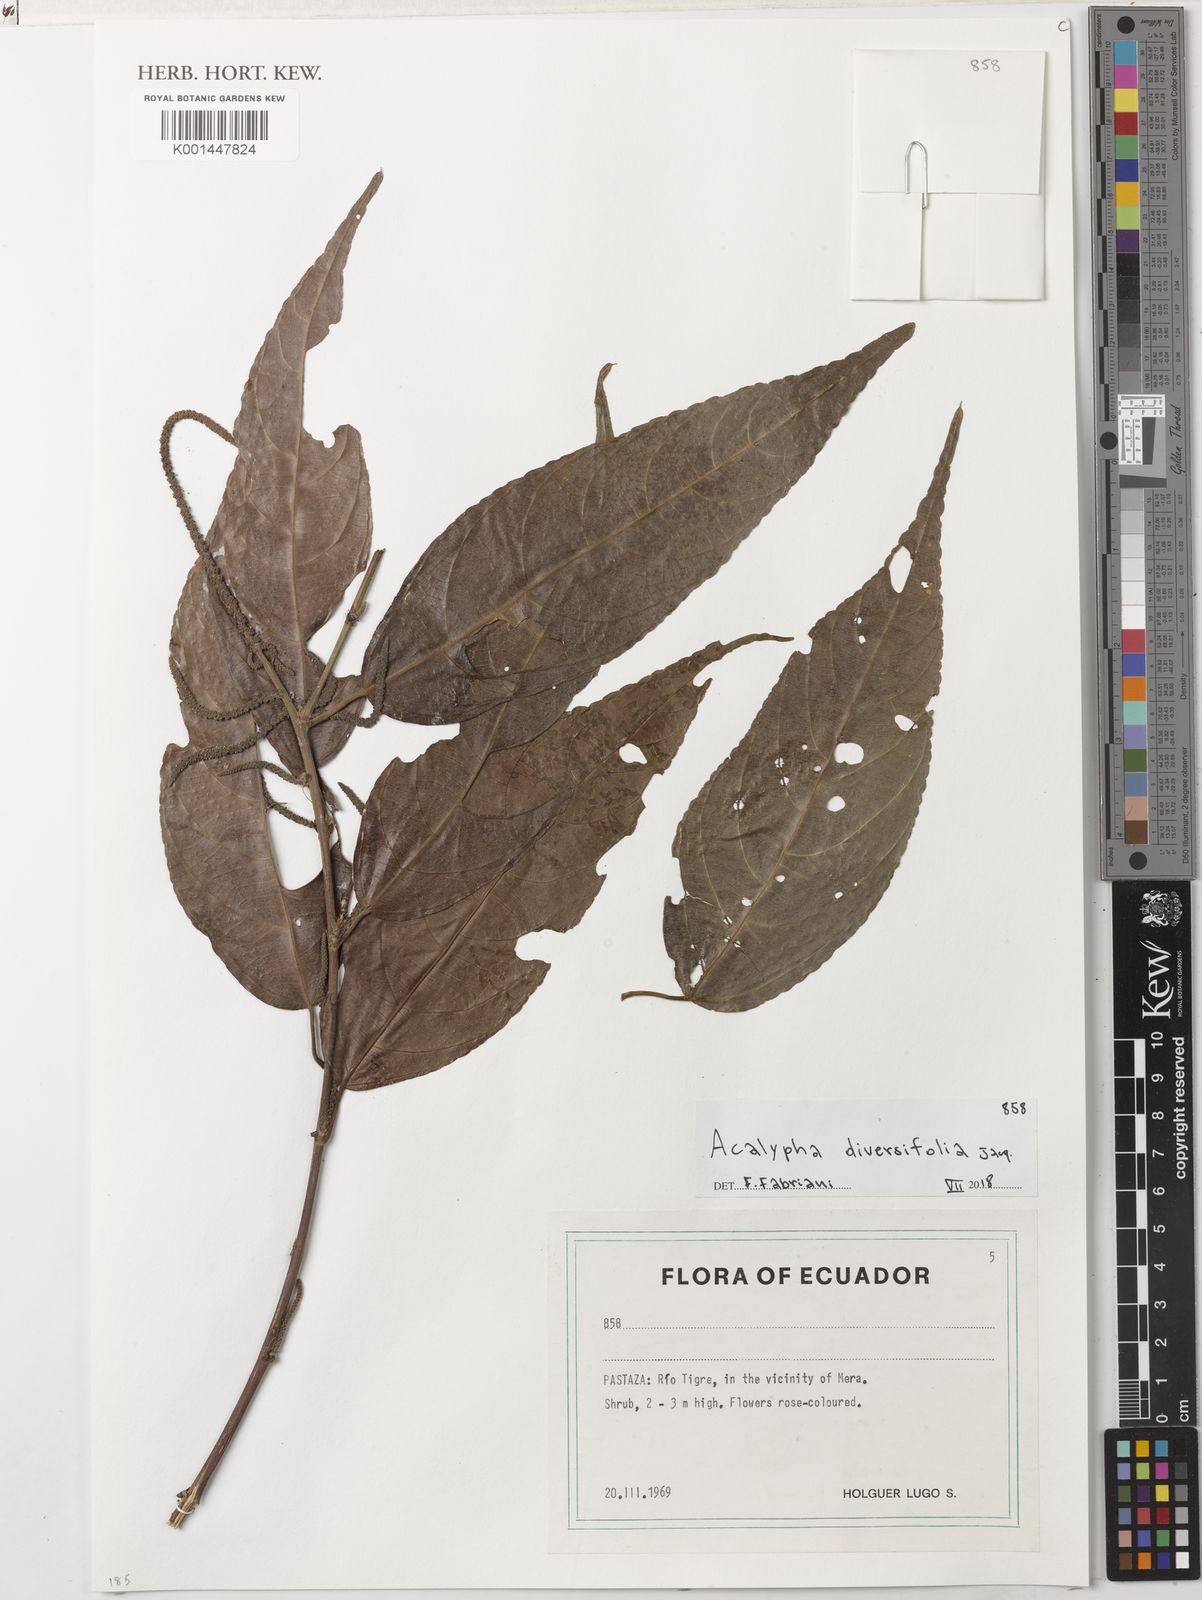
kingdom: Plantae
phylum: Tracheophyta
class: Magnoliopsida
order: Malpighiales
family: Euphorbiaceae
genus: Acalypha
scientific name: Acalypha diversifolia
